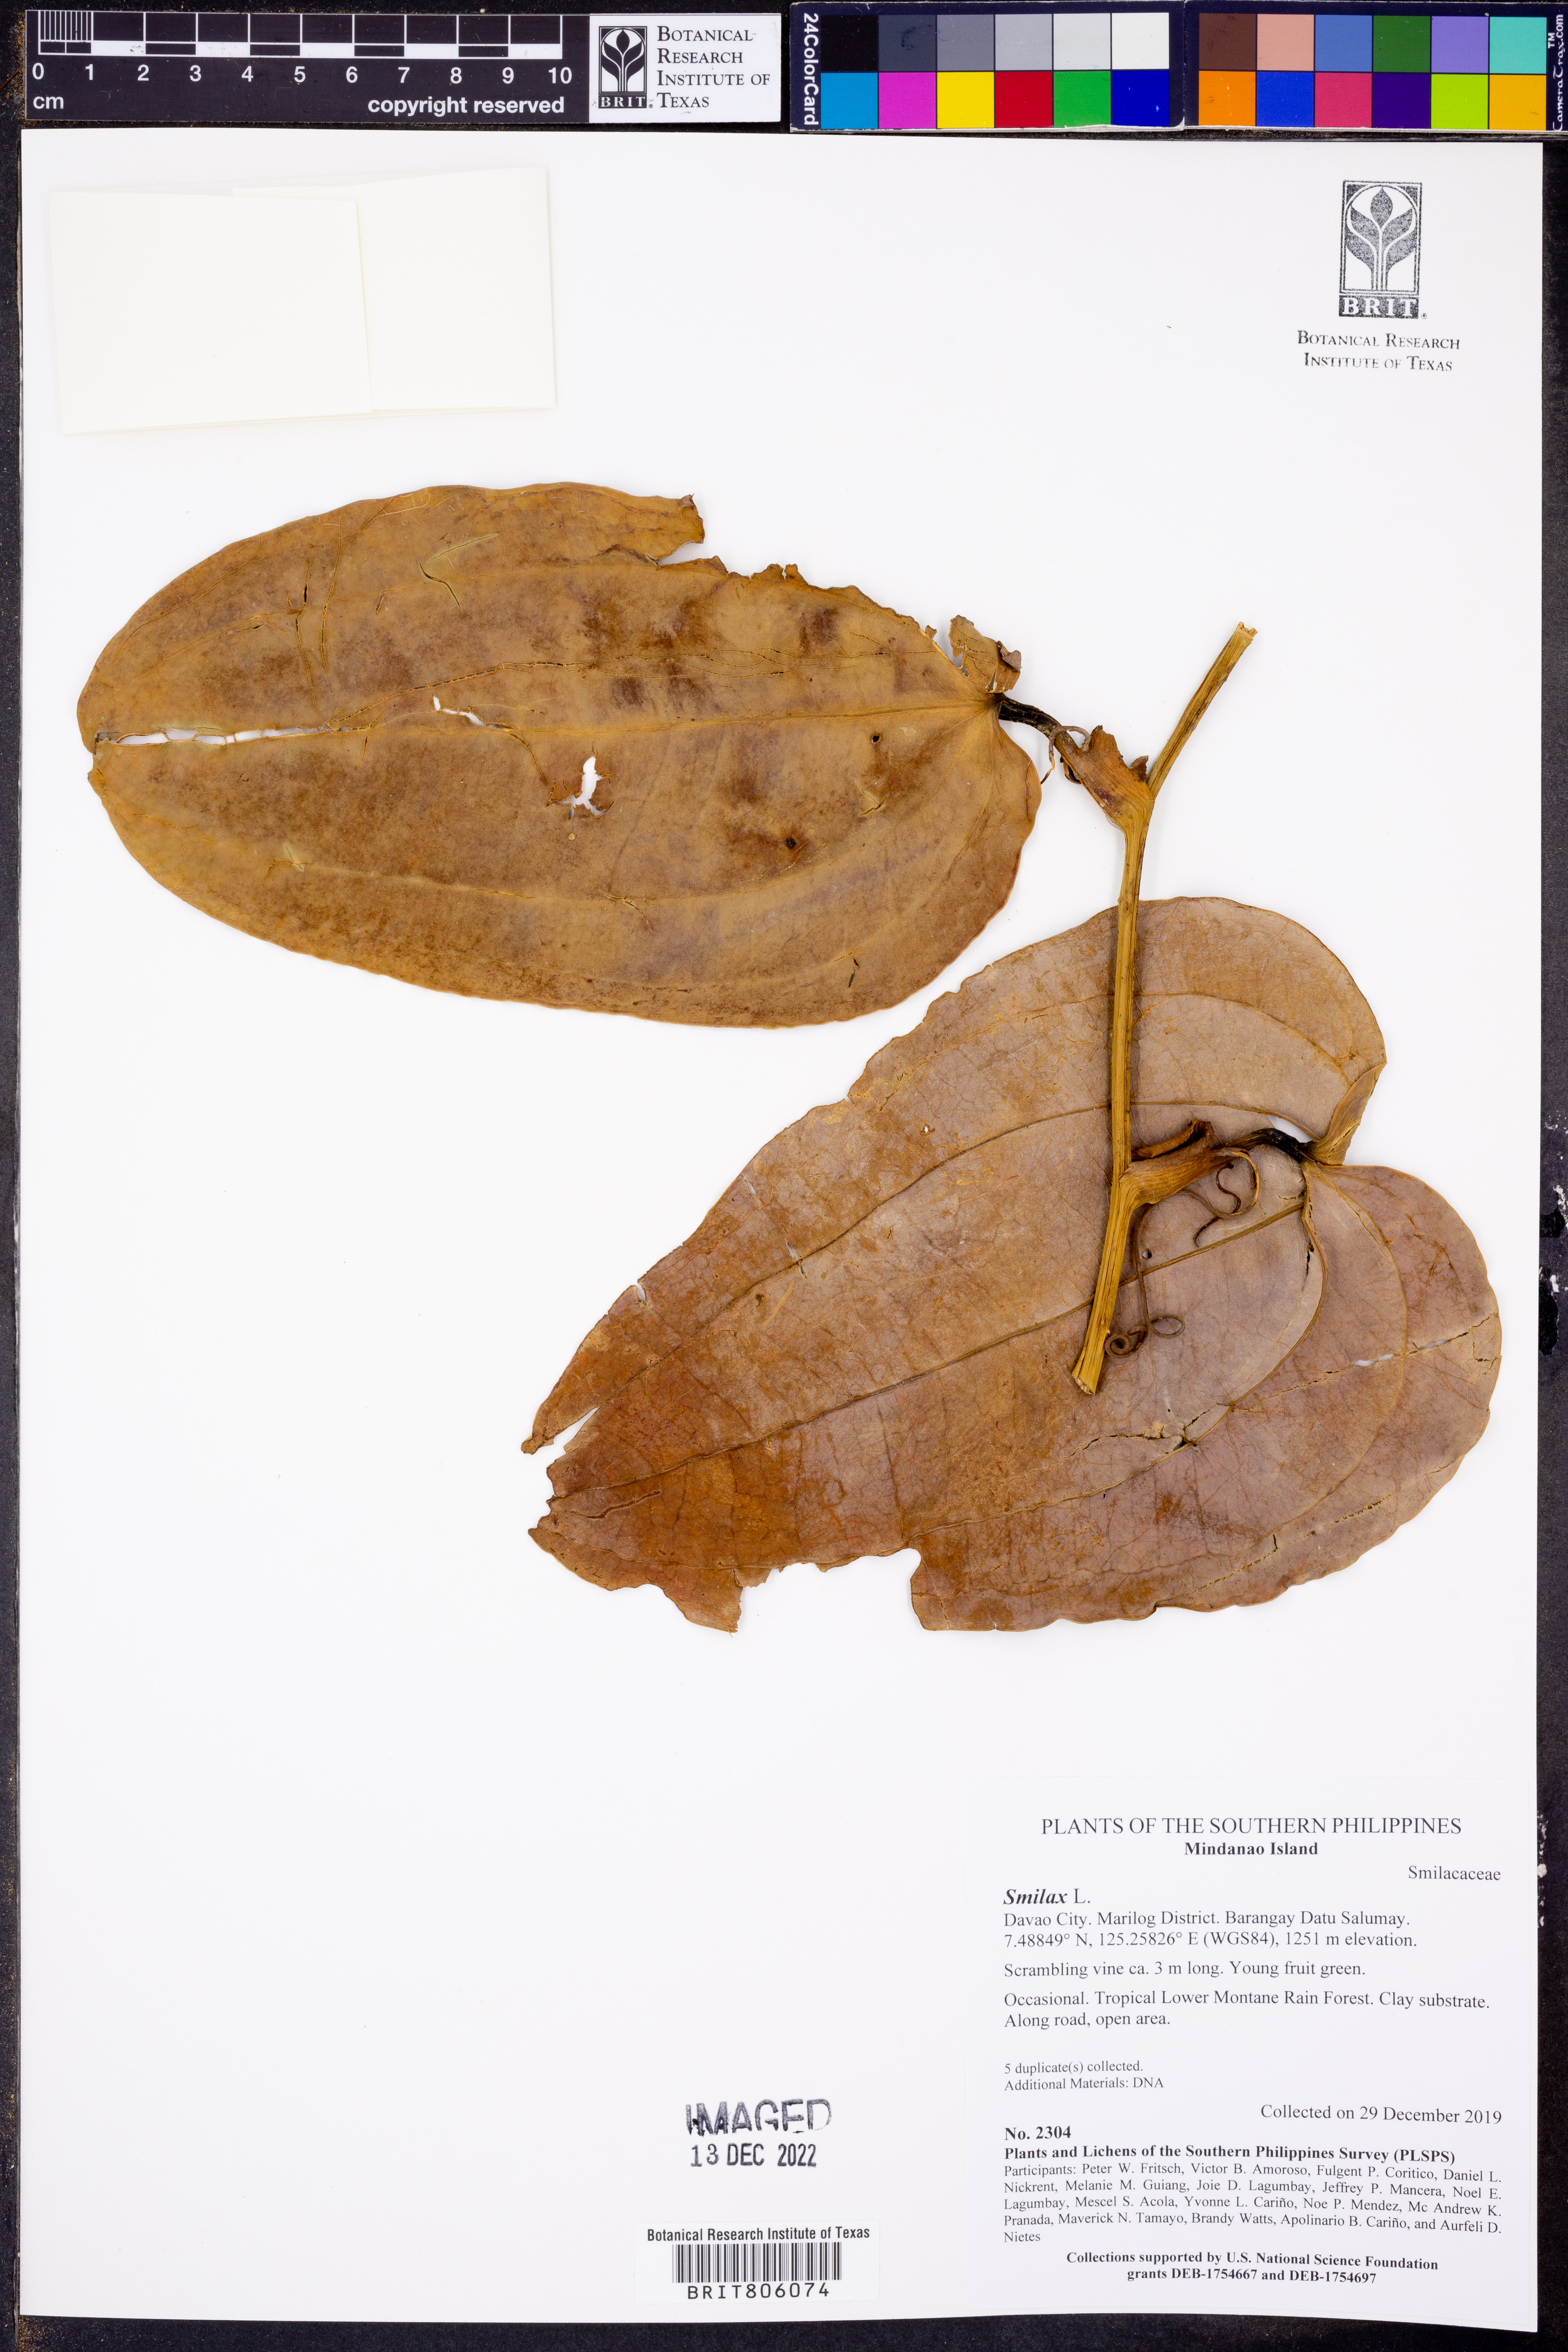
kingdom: Plantae
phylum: Tracheophyta
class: Liliopsida
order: Liliales
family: Smilacaceae
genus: Smilax
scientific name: Smilax
